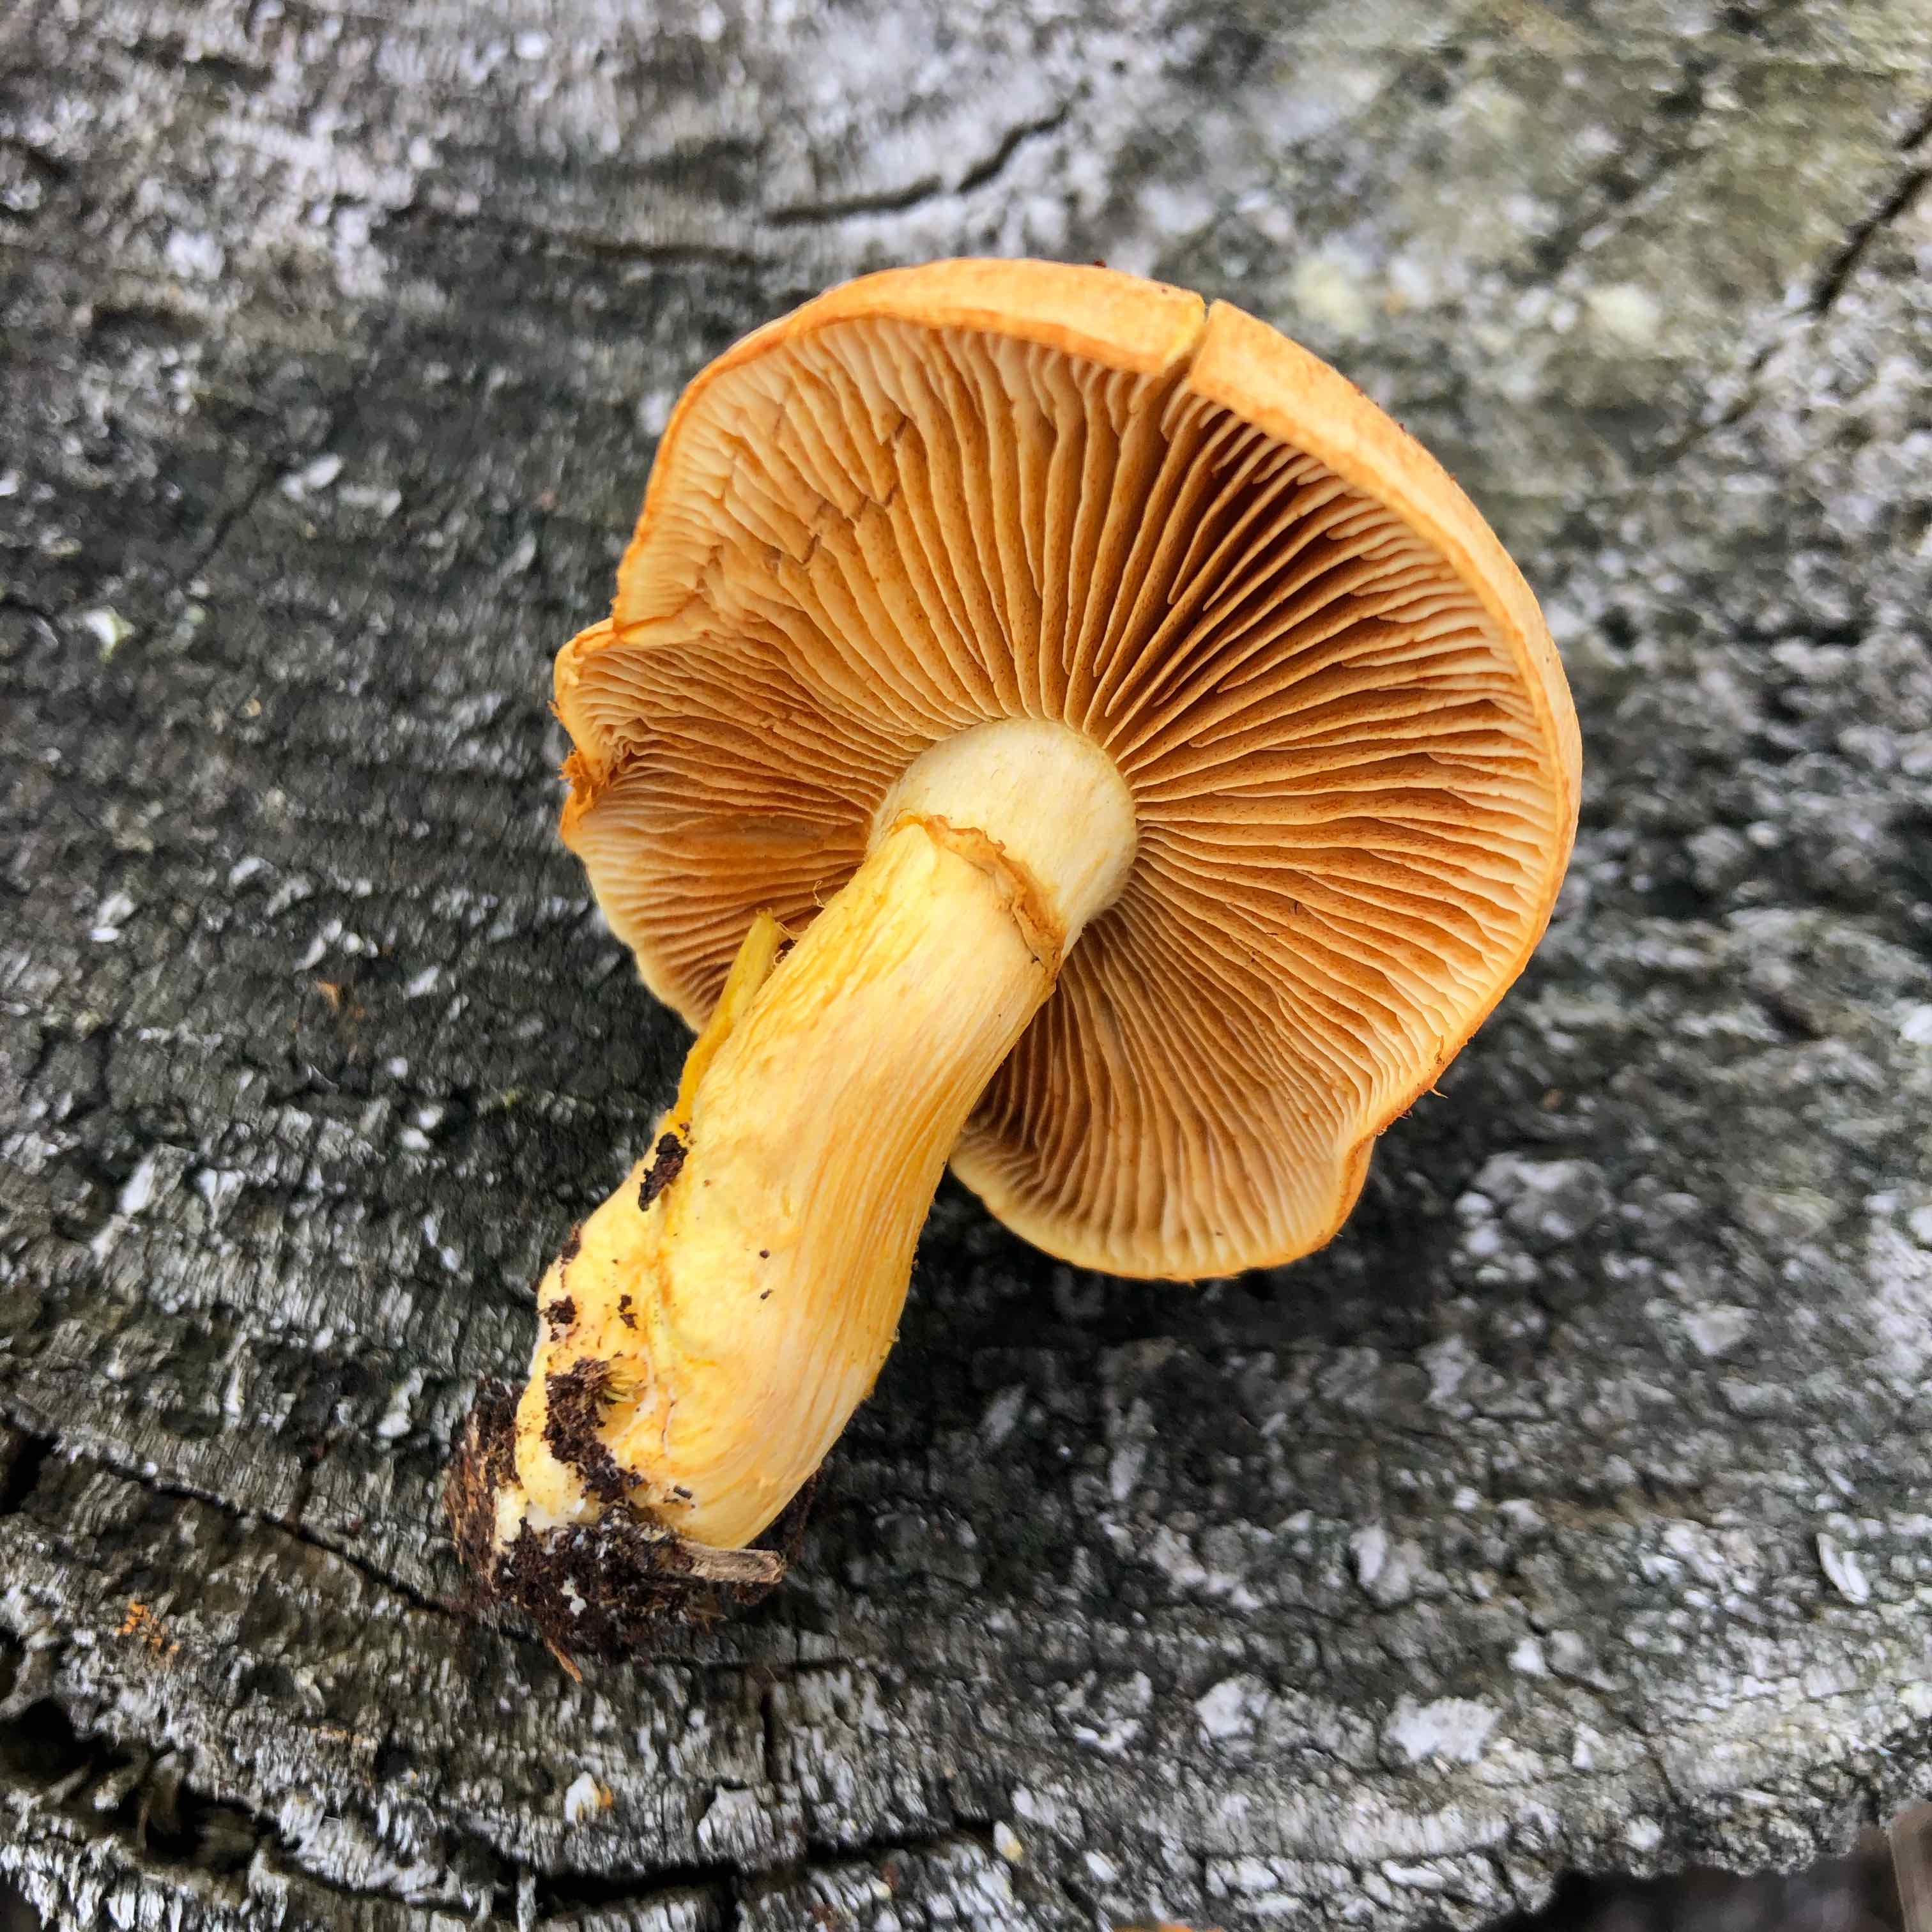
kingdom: Fungi
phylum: Basidiomycota
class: Agaricomycetes
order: Agaricales
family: Hymenogastraceae
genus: Gymnopilus
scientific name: Gymnopilus spectabilis
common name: fibret flammehat
